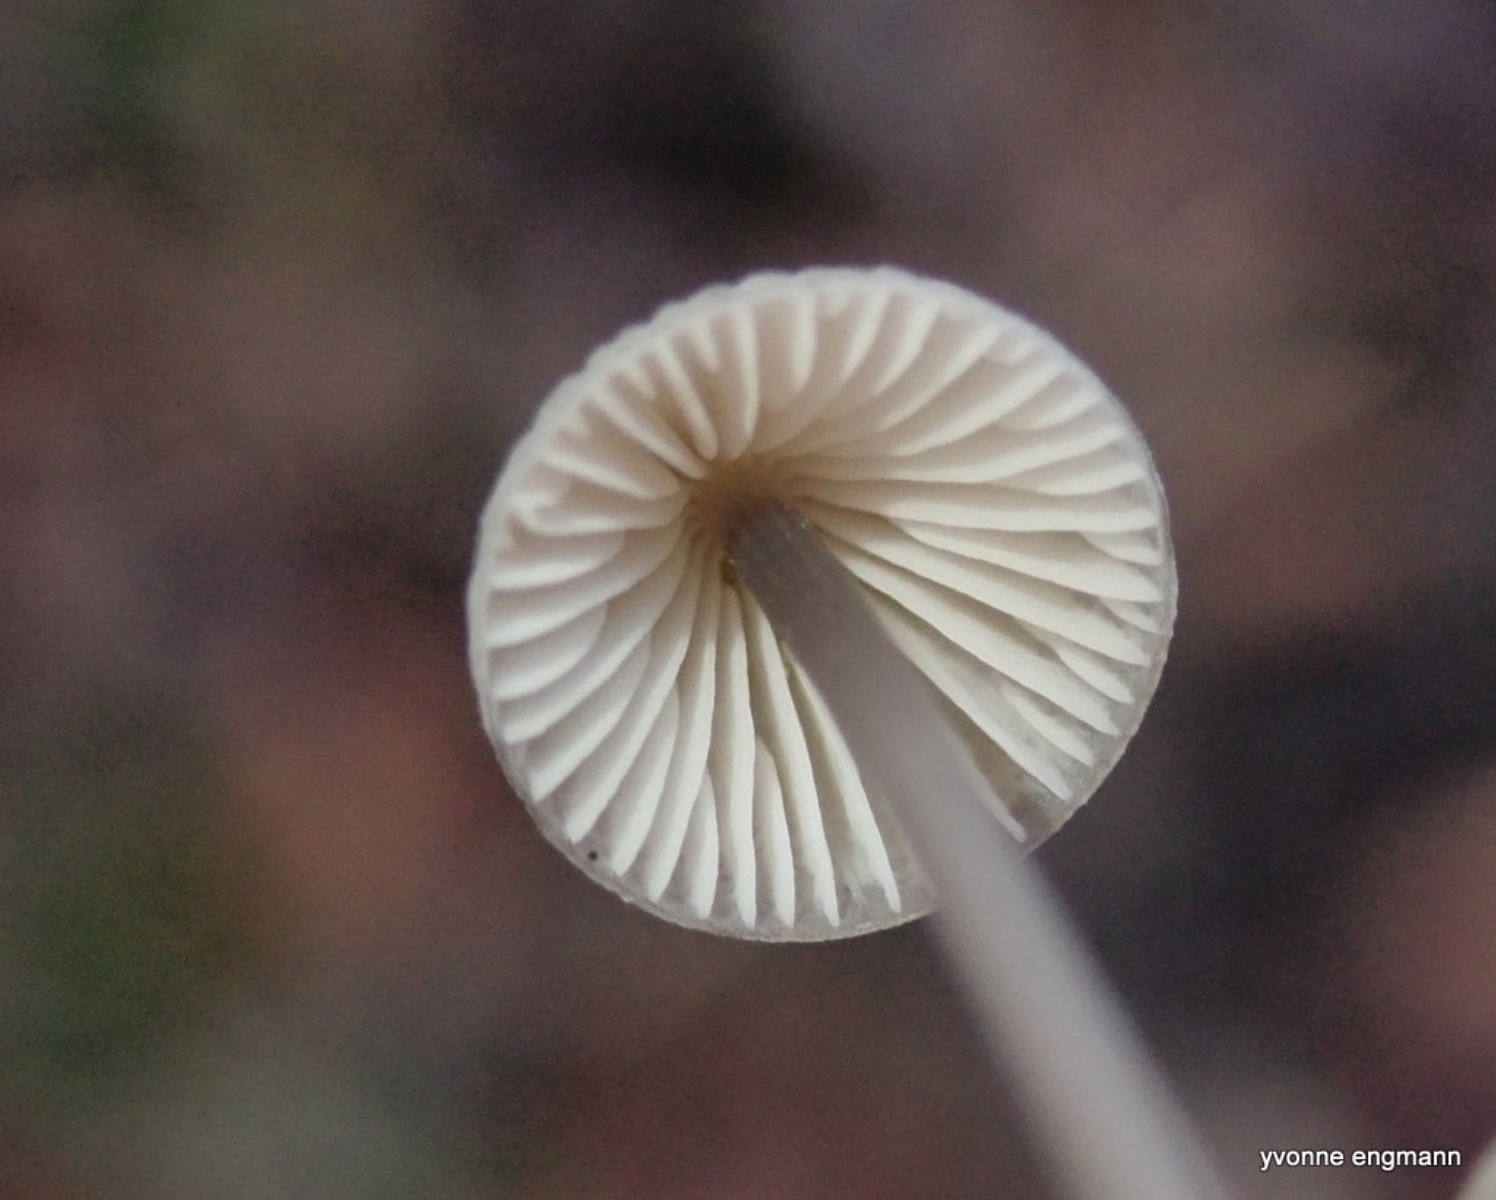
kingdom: Fungi
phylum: Basidiomycota
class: Agaricomycetes
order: Agaricales
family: Mycenaceae
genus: Mycena
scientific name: Mycena vitilis
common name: blankstokket huesvamp
